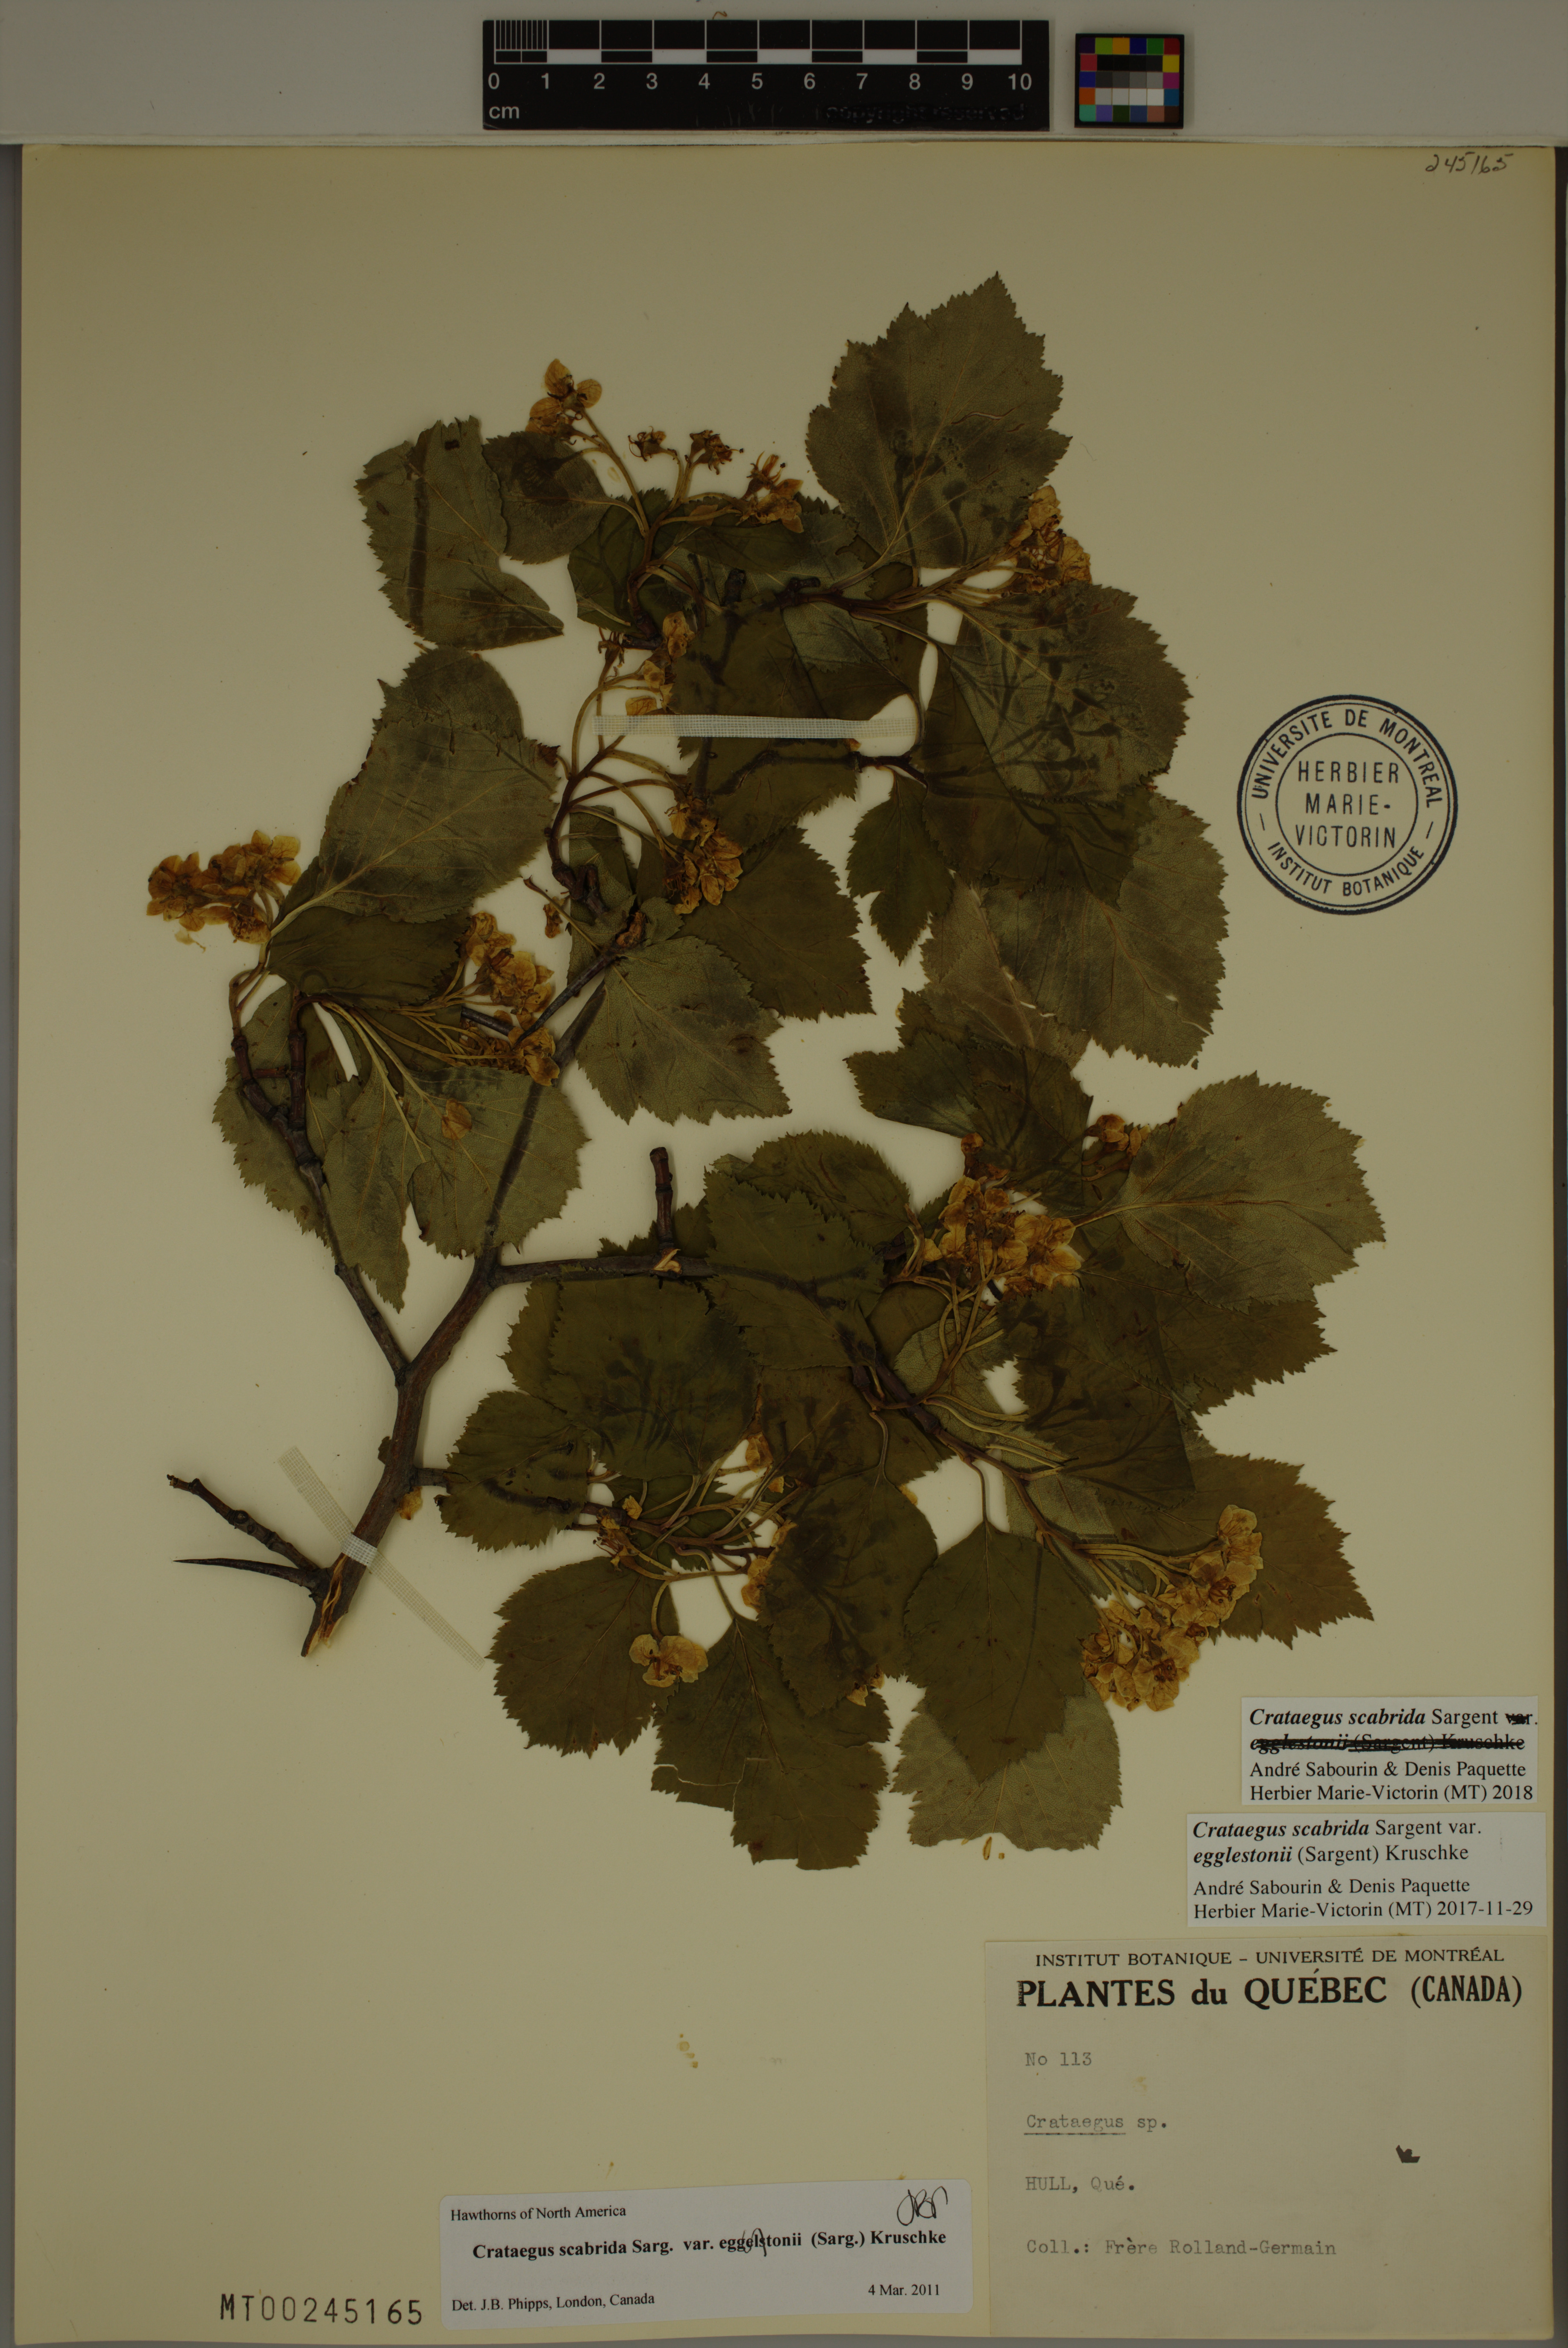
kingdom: Plantae
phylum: Tracheophyta
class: Magnoliopsida
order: Rosales
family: Rosaceae
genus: Crataegus
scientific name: Crataegus scabrida
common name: Rough hawthorn
